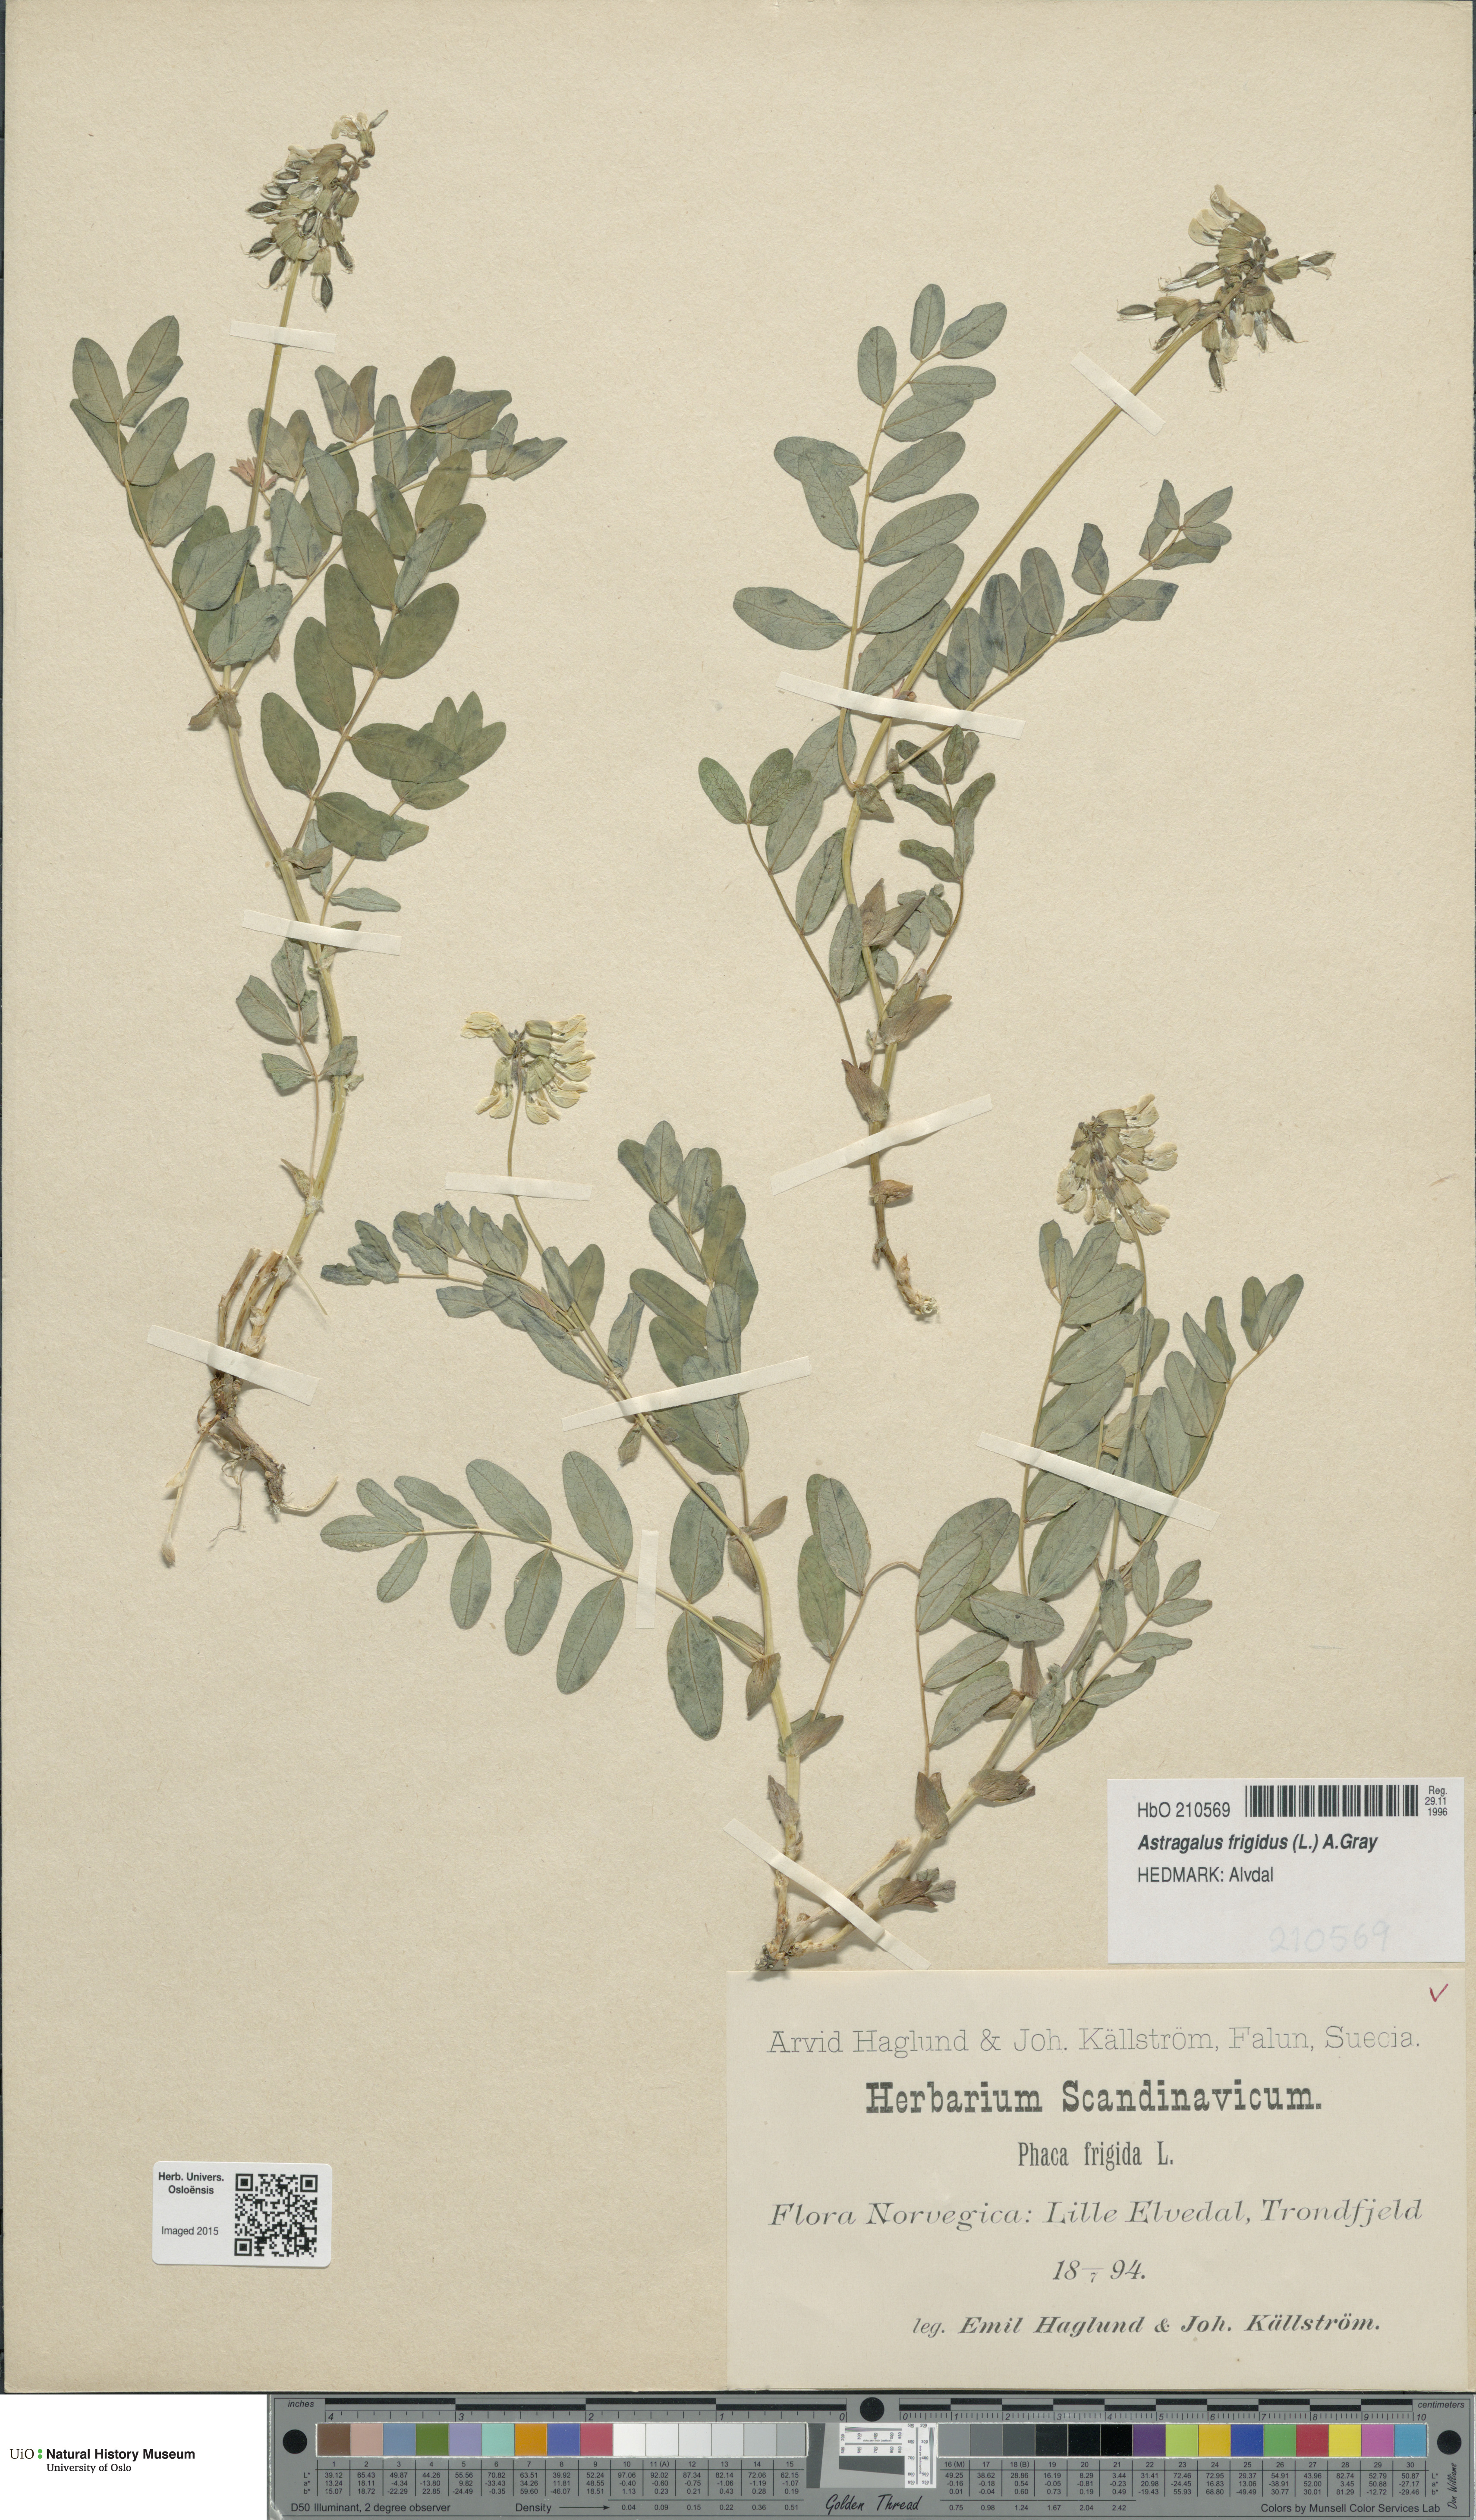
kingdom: Plantae
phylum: Tracheophyta
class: Magnoliopsida
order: Fabales
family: Fabaceae
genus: Astragalus
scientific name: Astragalus frigidus
